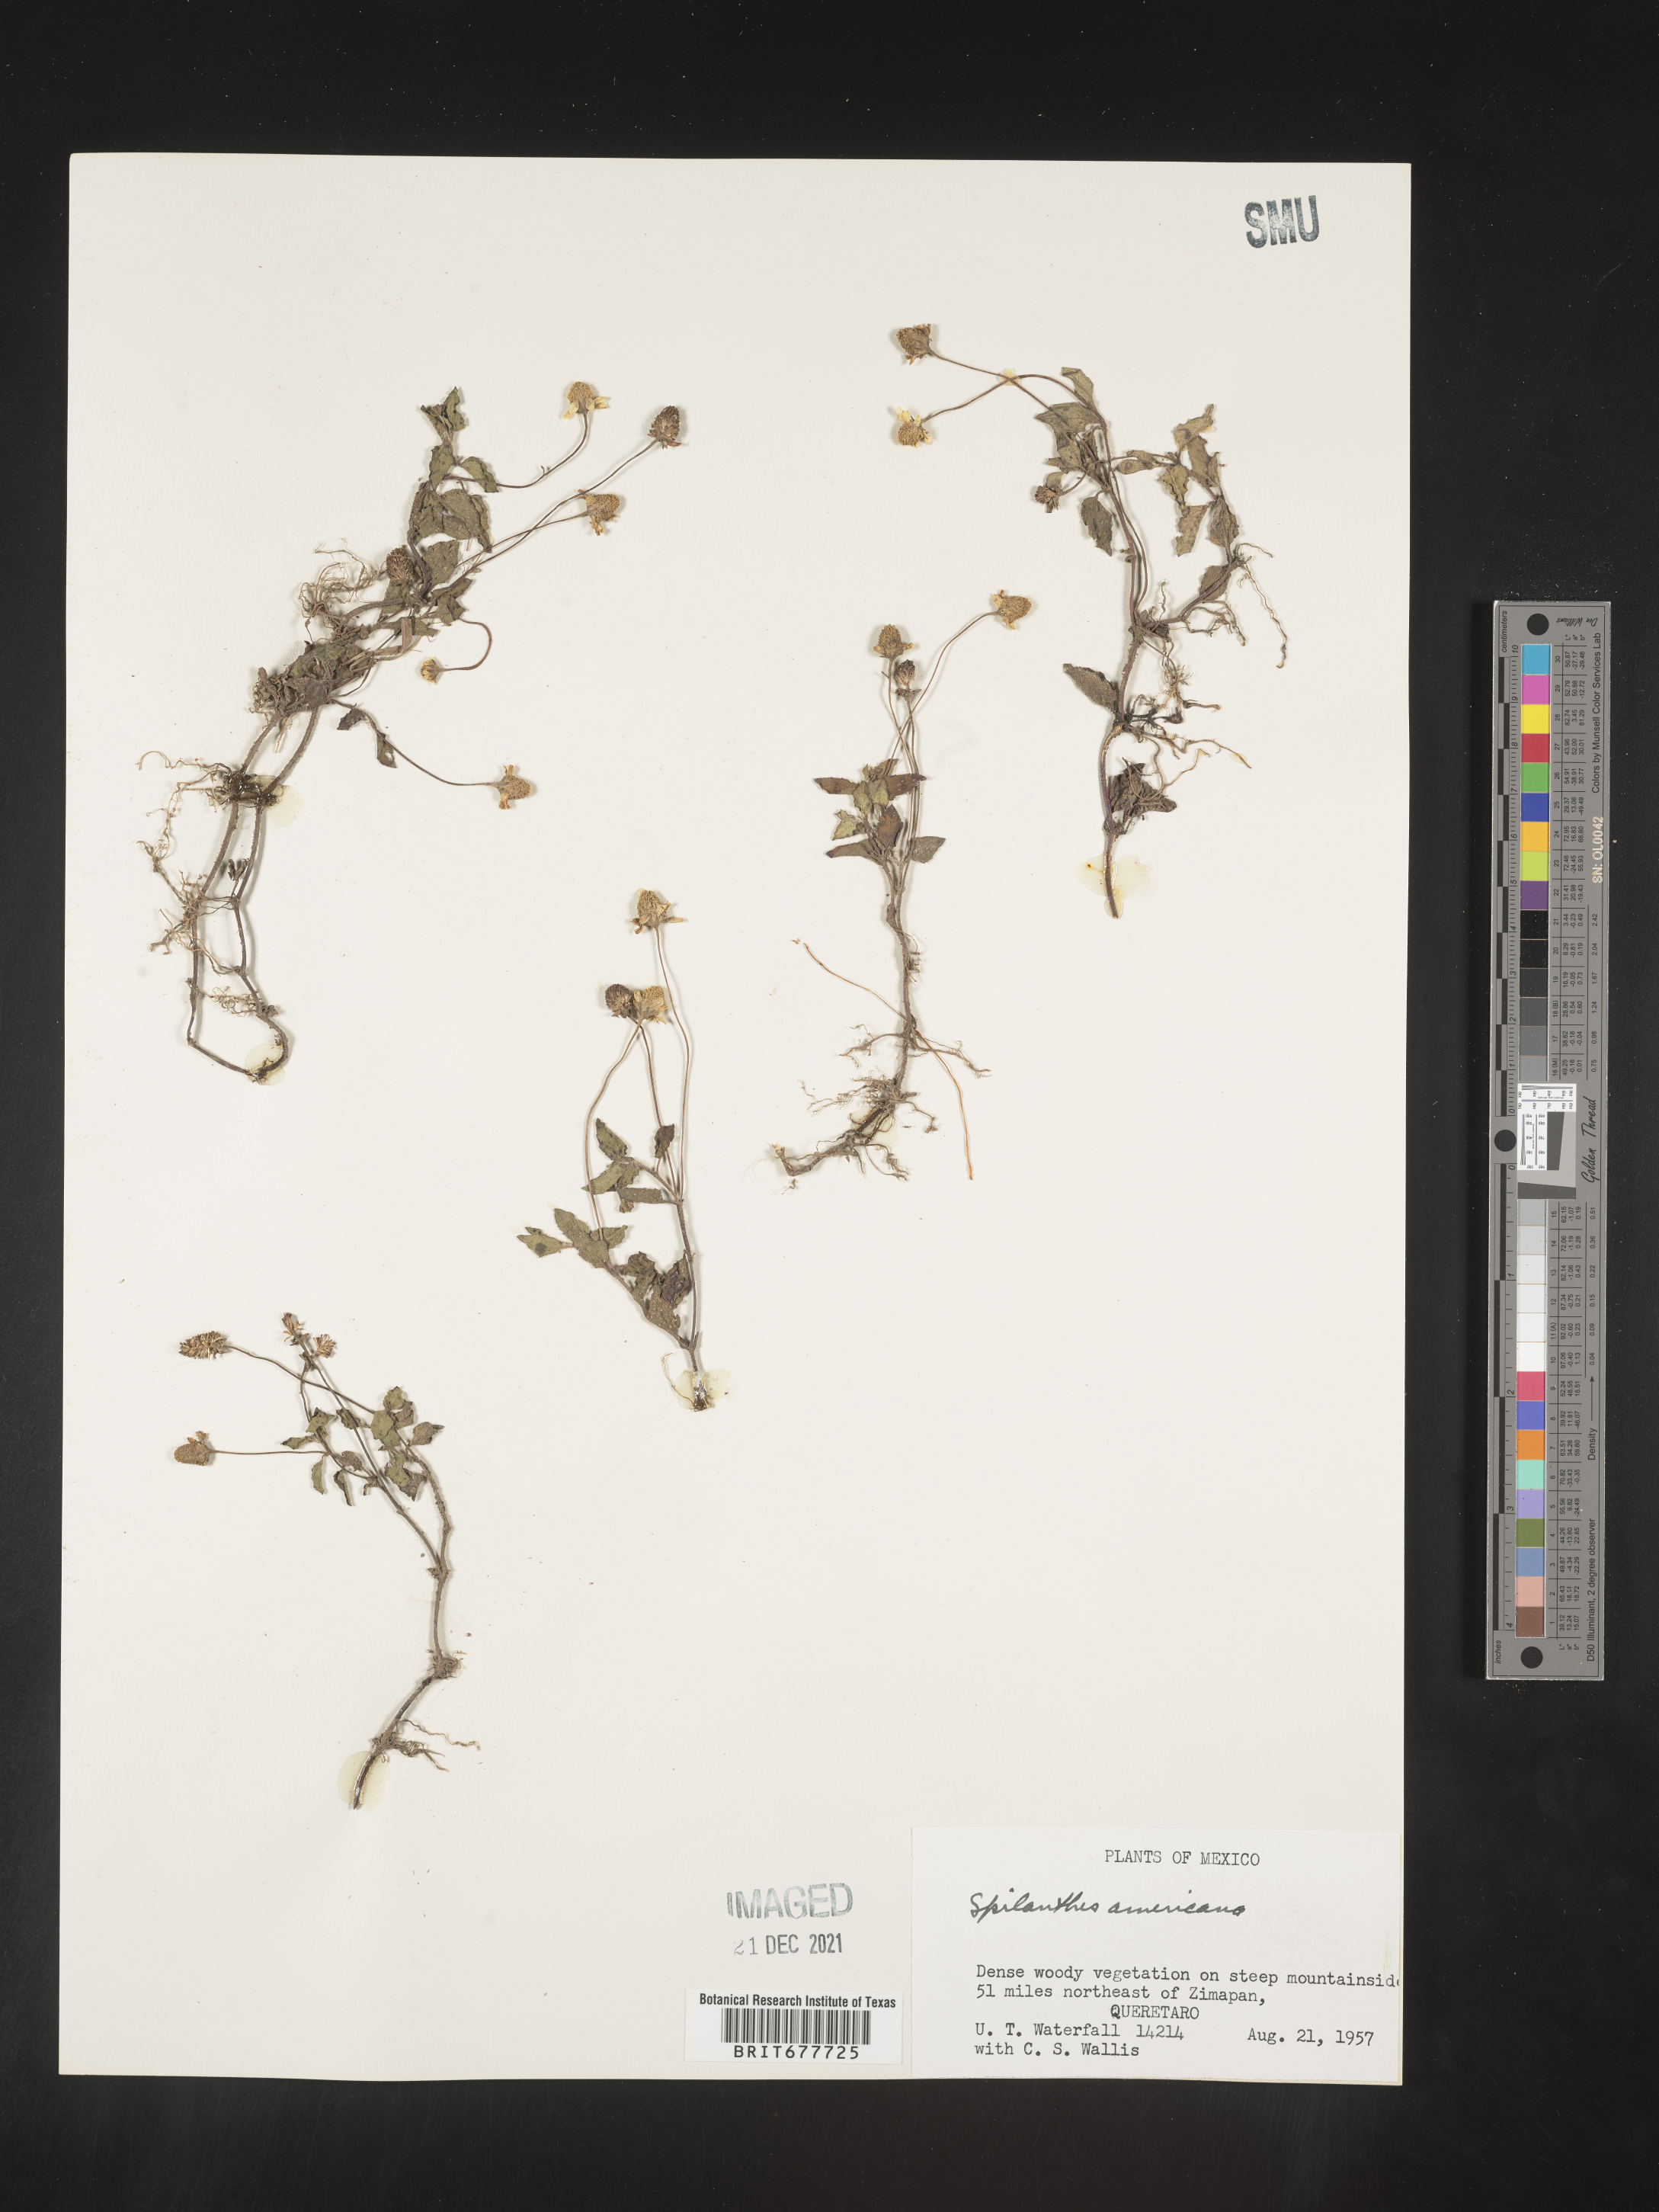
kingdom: Plantae
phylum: Tracheophyta
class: Magnoliopsida
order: Asterales
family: Asteraceae
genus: Spilanthes
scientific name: Spilanthes
